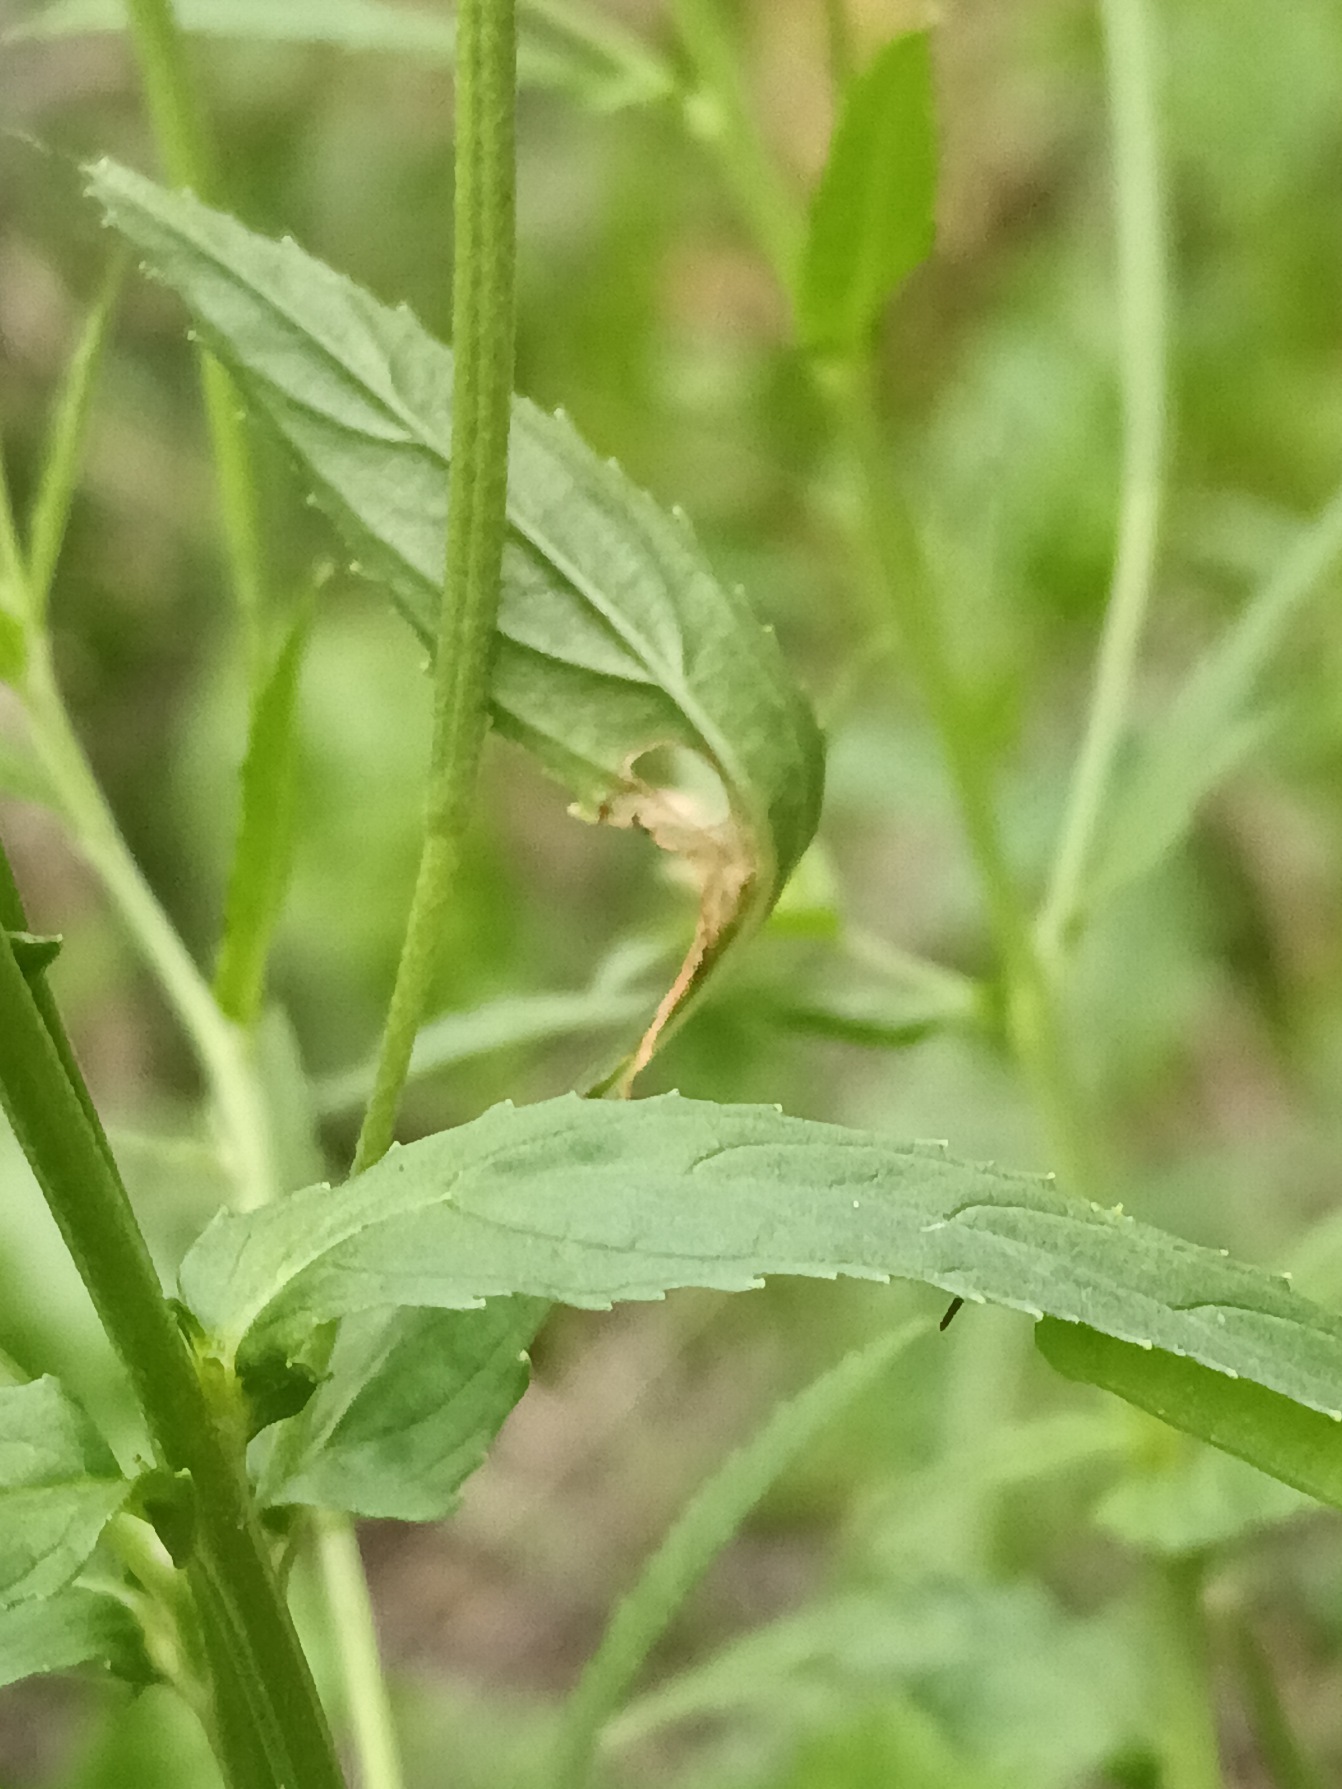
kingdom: Plantae
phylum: Tracheophyta
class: Magnoliopsida
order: Myrtales
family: Onagraceae
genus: Epilobium
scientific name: Epilobium tetragonum
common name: Kantet dueurt
